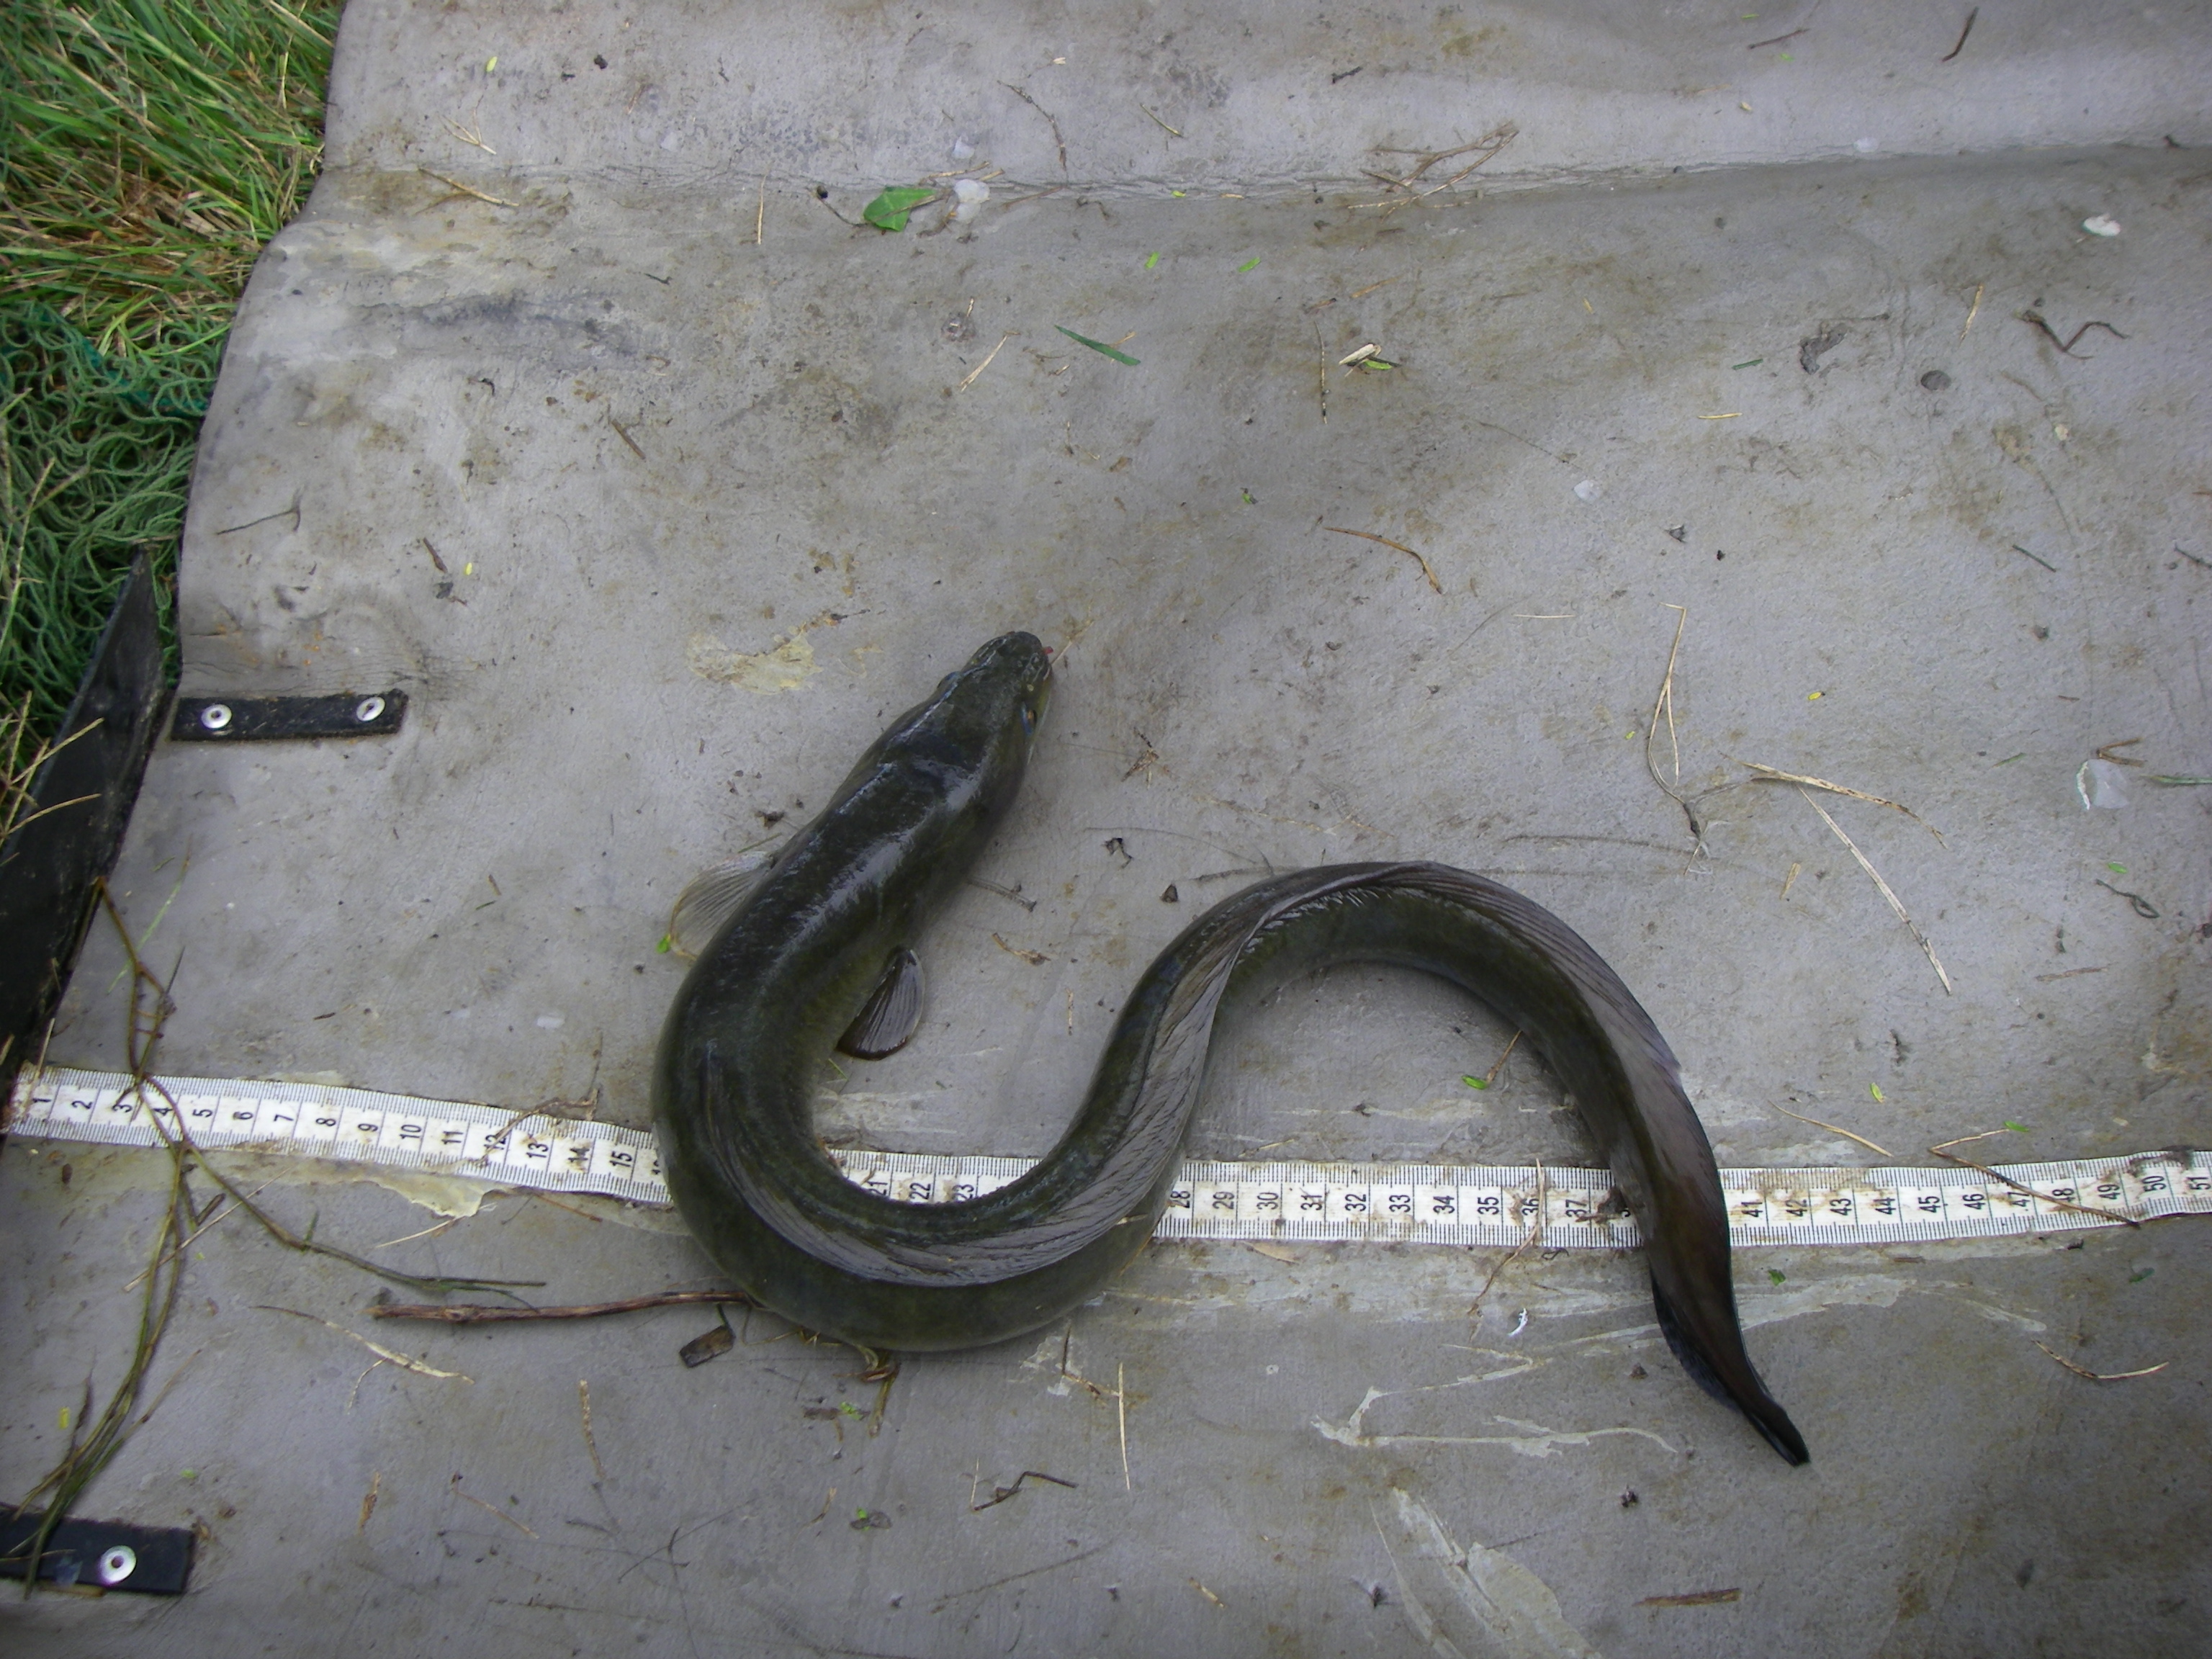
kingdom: Animalia
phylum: Chordata
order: Anguilliformes
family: Anguillidae
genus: Anguilla
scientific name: Anguilla mossambica
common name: African longfin eel
